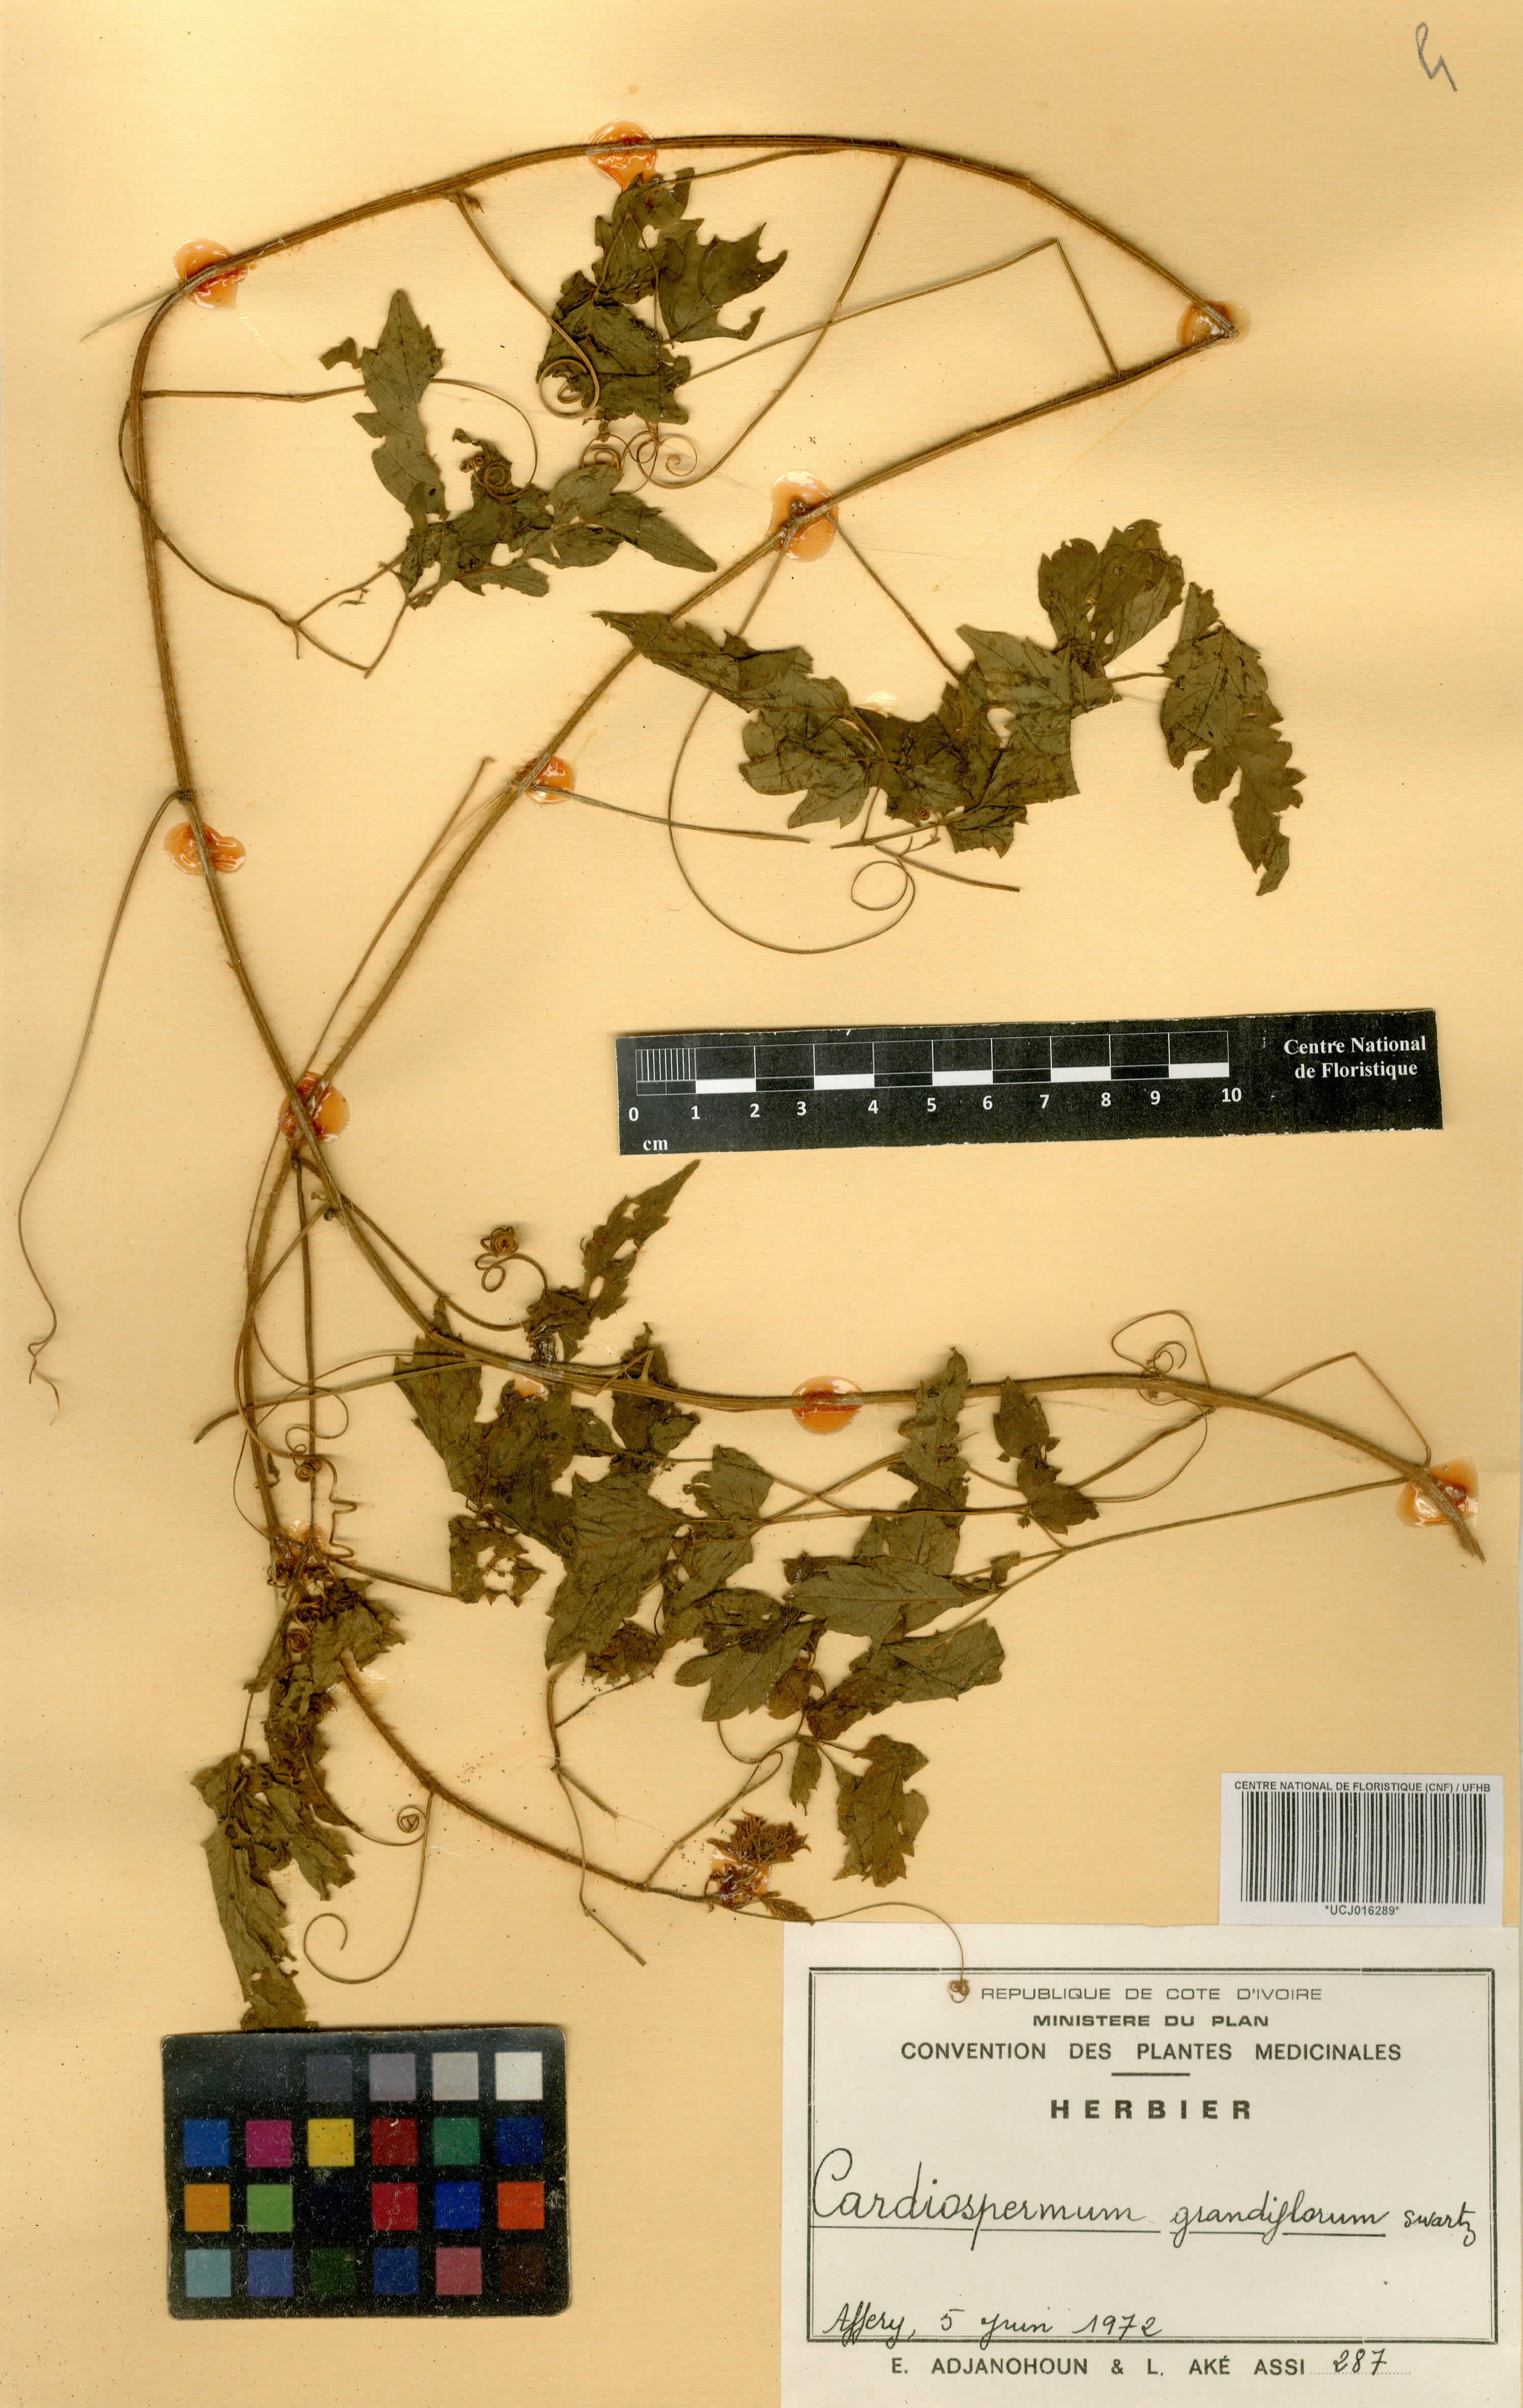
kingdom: Plantae
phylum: Tracheophyta
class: Magnoliopsida
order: Sapindales
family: Sapindaceae
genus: Cardiospermum
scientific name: Cardiospermum grandiflorum
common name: Balloon vine
